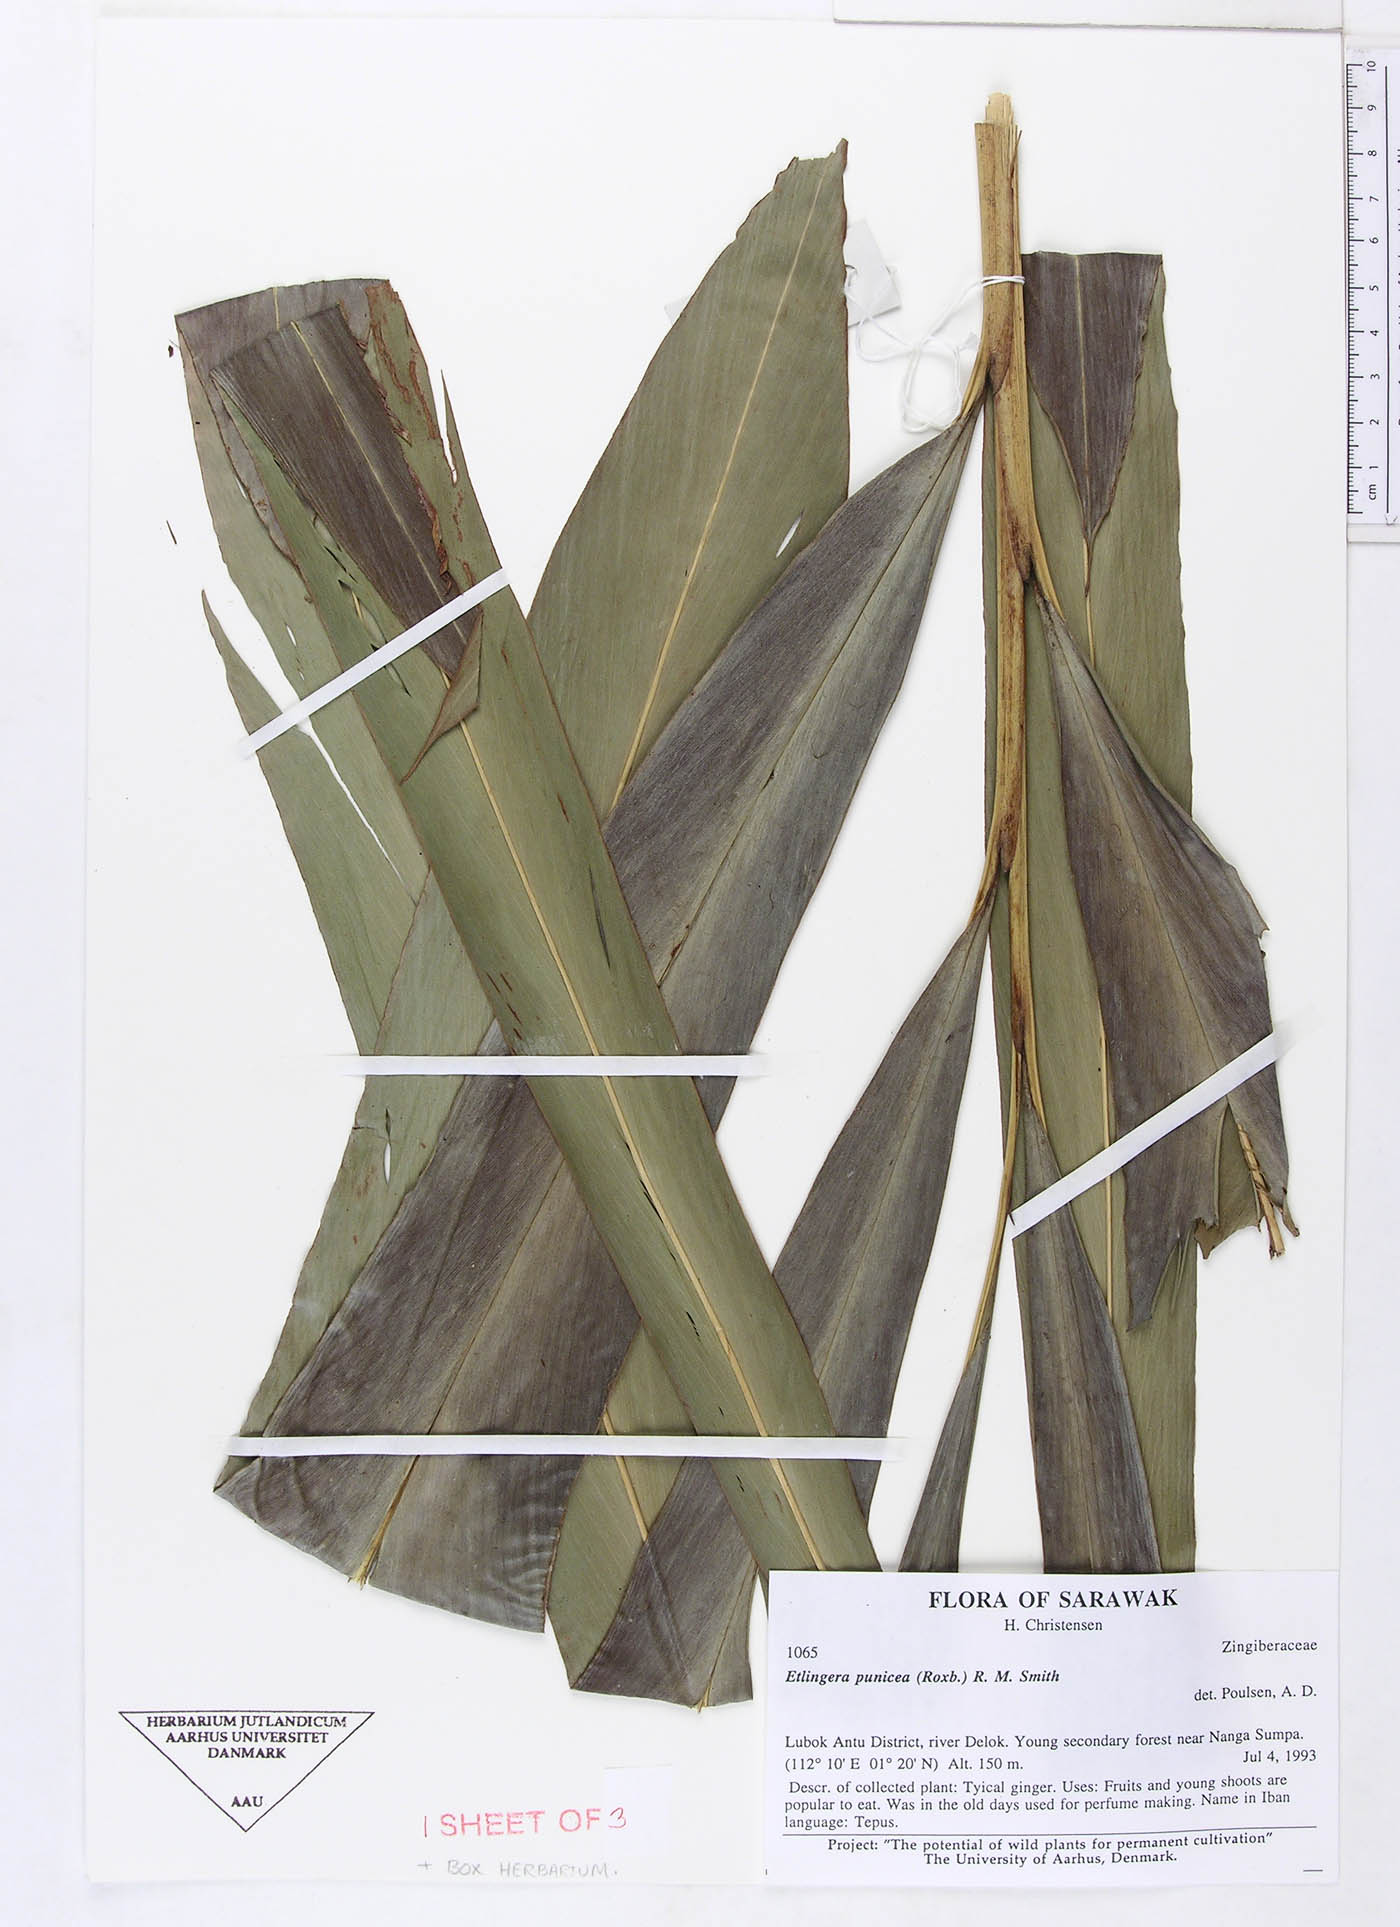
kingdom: Plantae
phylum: Tracheophyta
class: Liliopsida
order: Zingiberales
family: Zingiberaceae
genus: Etlingera
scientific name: Etlingera coccinea
